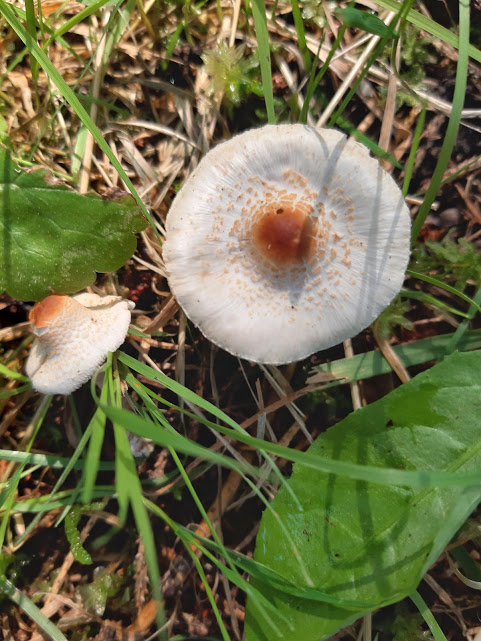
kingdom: Fungi
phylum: Basidiomycota
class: Agaricomycetes
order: Agaricales
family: Agaricaceae
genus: Lepiota
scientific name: Lepiota cristata
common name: stinkende parasolhat
